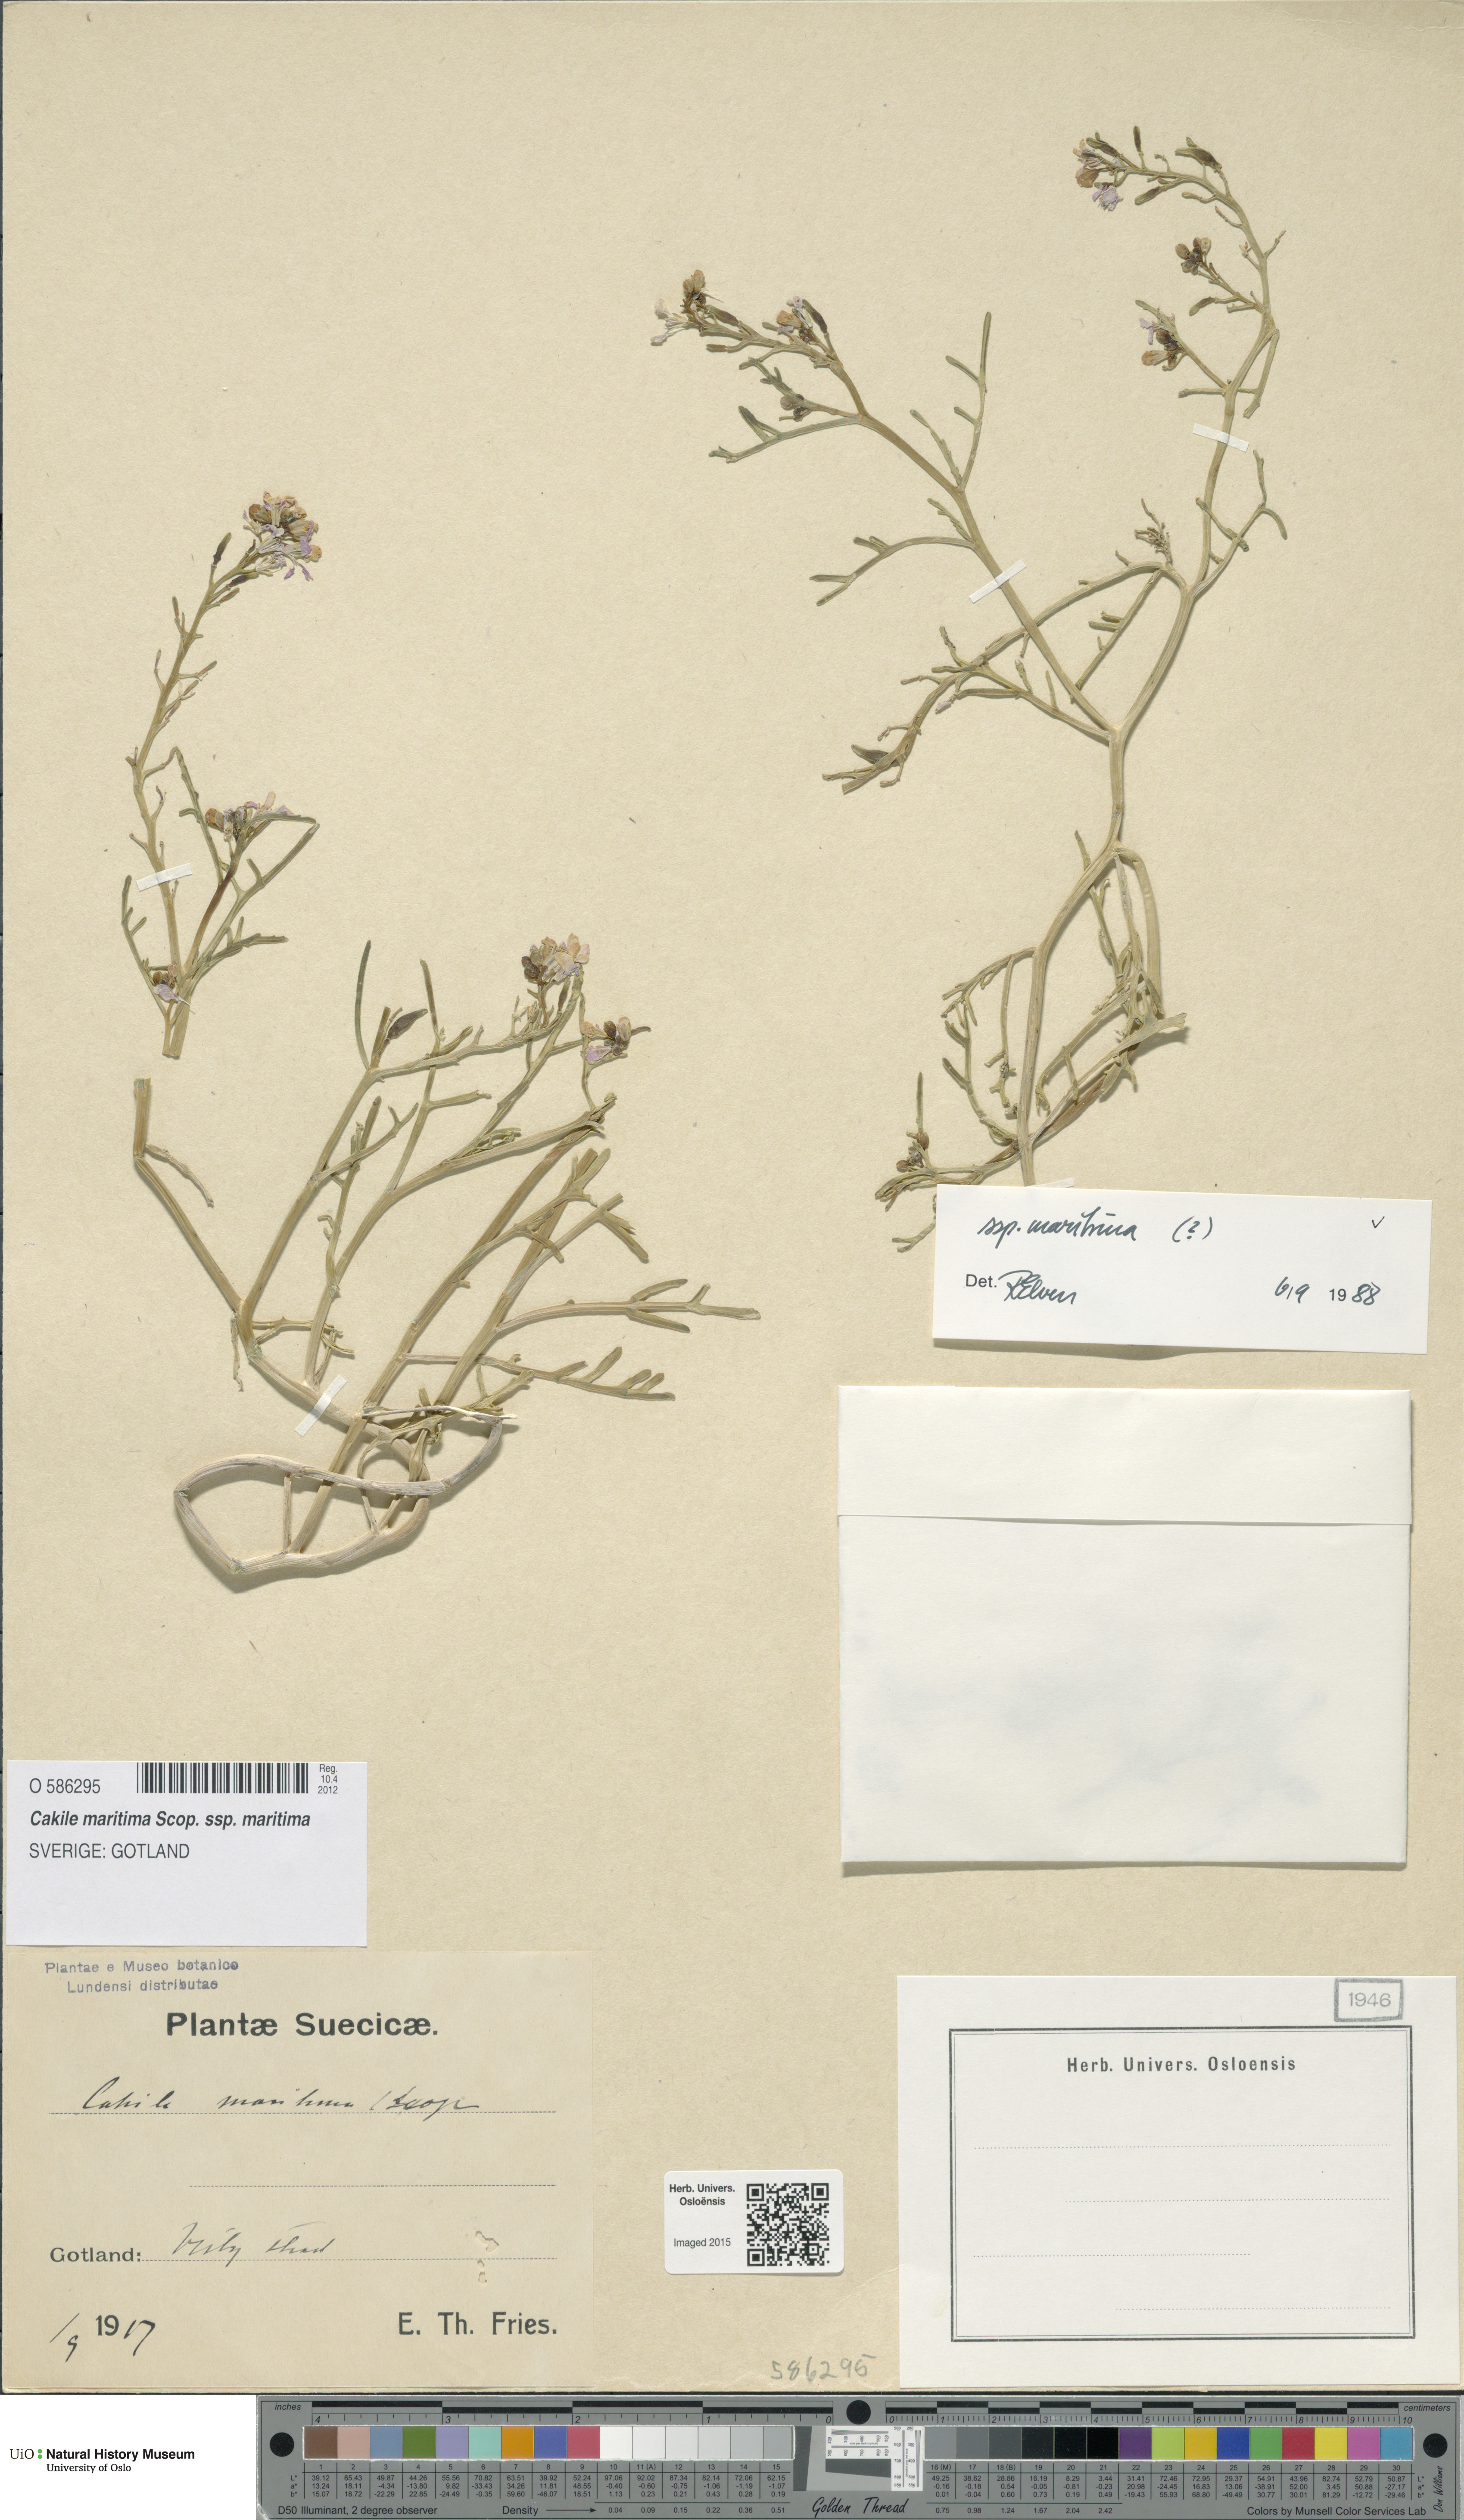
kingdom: Plantae
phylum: Tracheophyta
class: Magnoliopsida
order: Brassicales
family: Brassicaceae
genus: Cakile
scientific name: Cakile maritima
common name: Sea rocket
